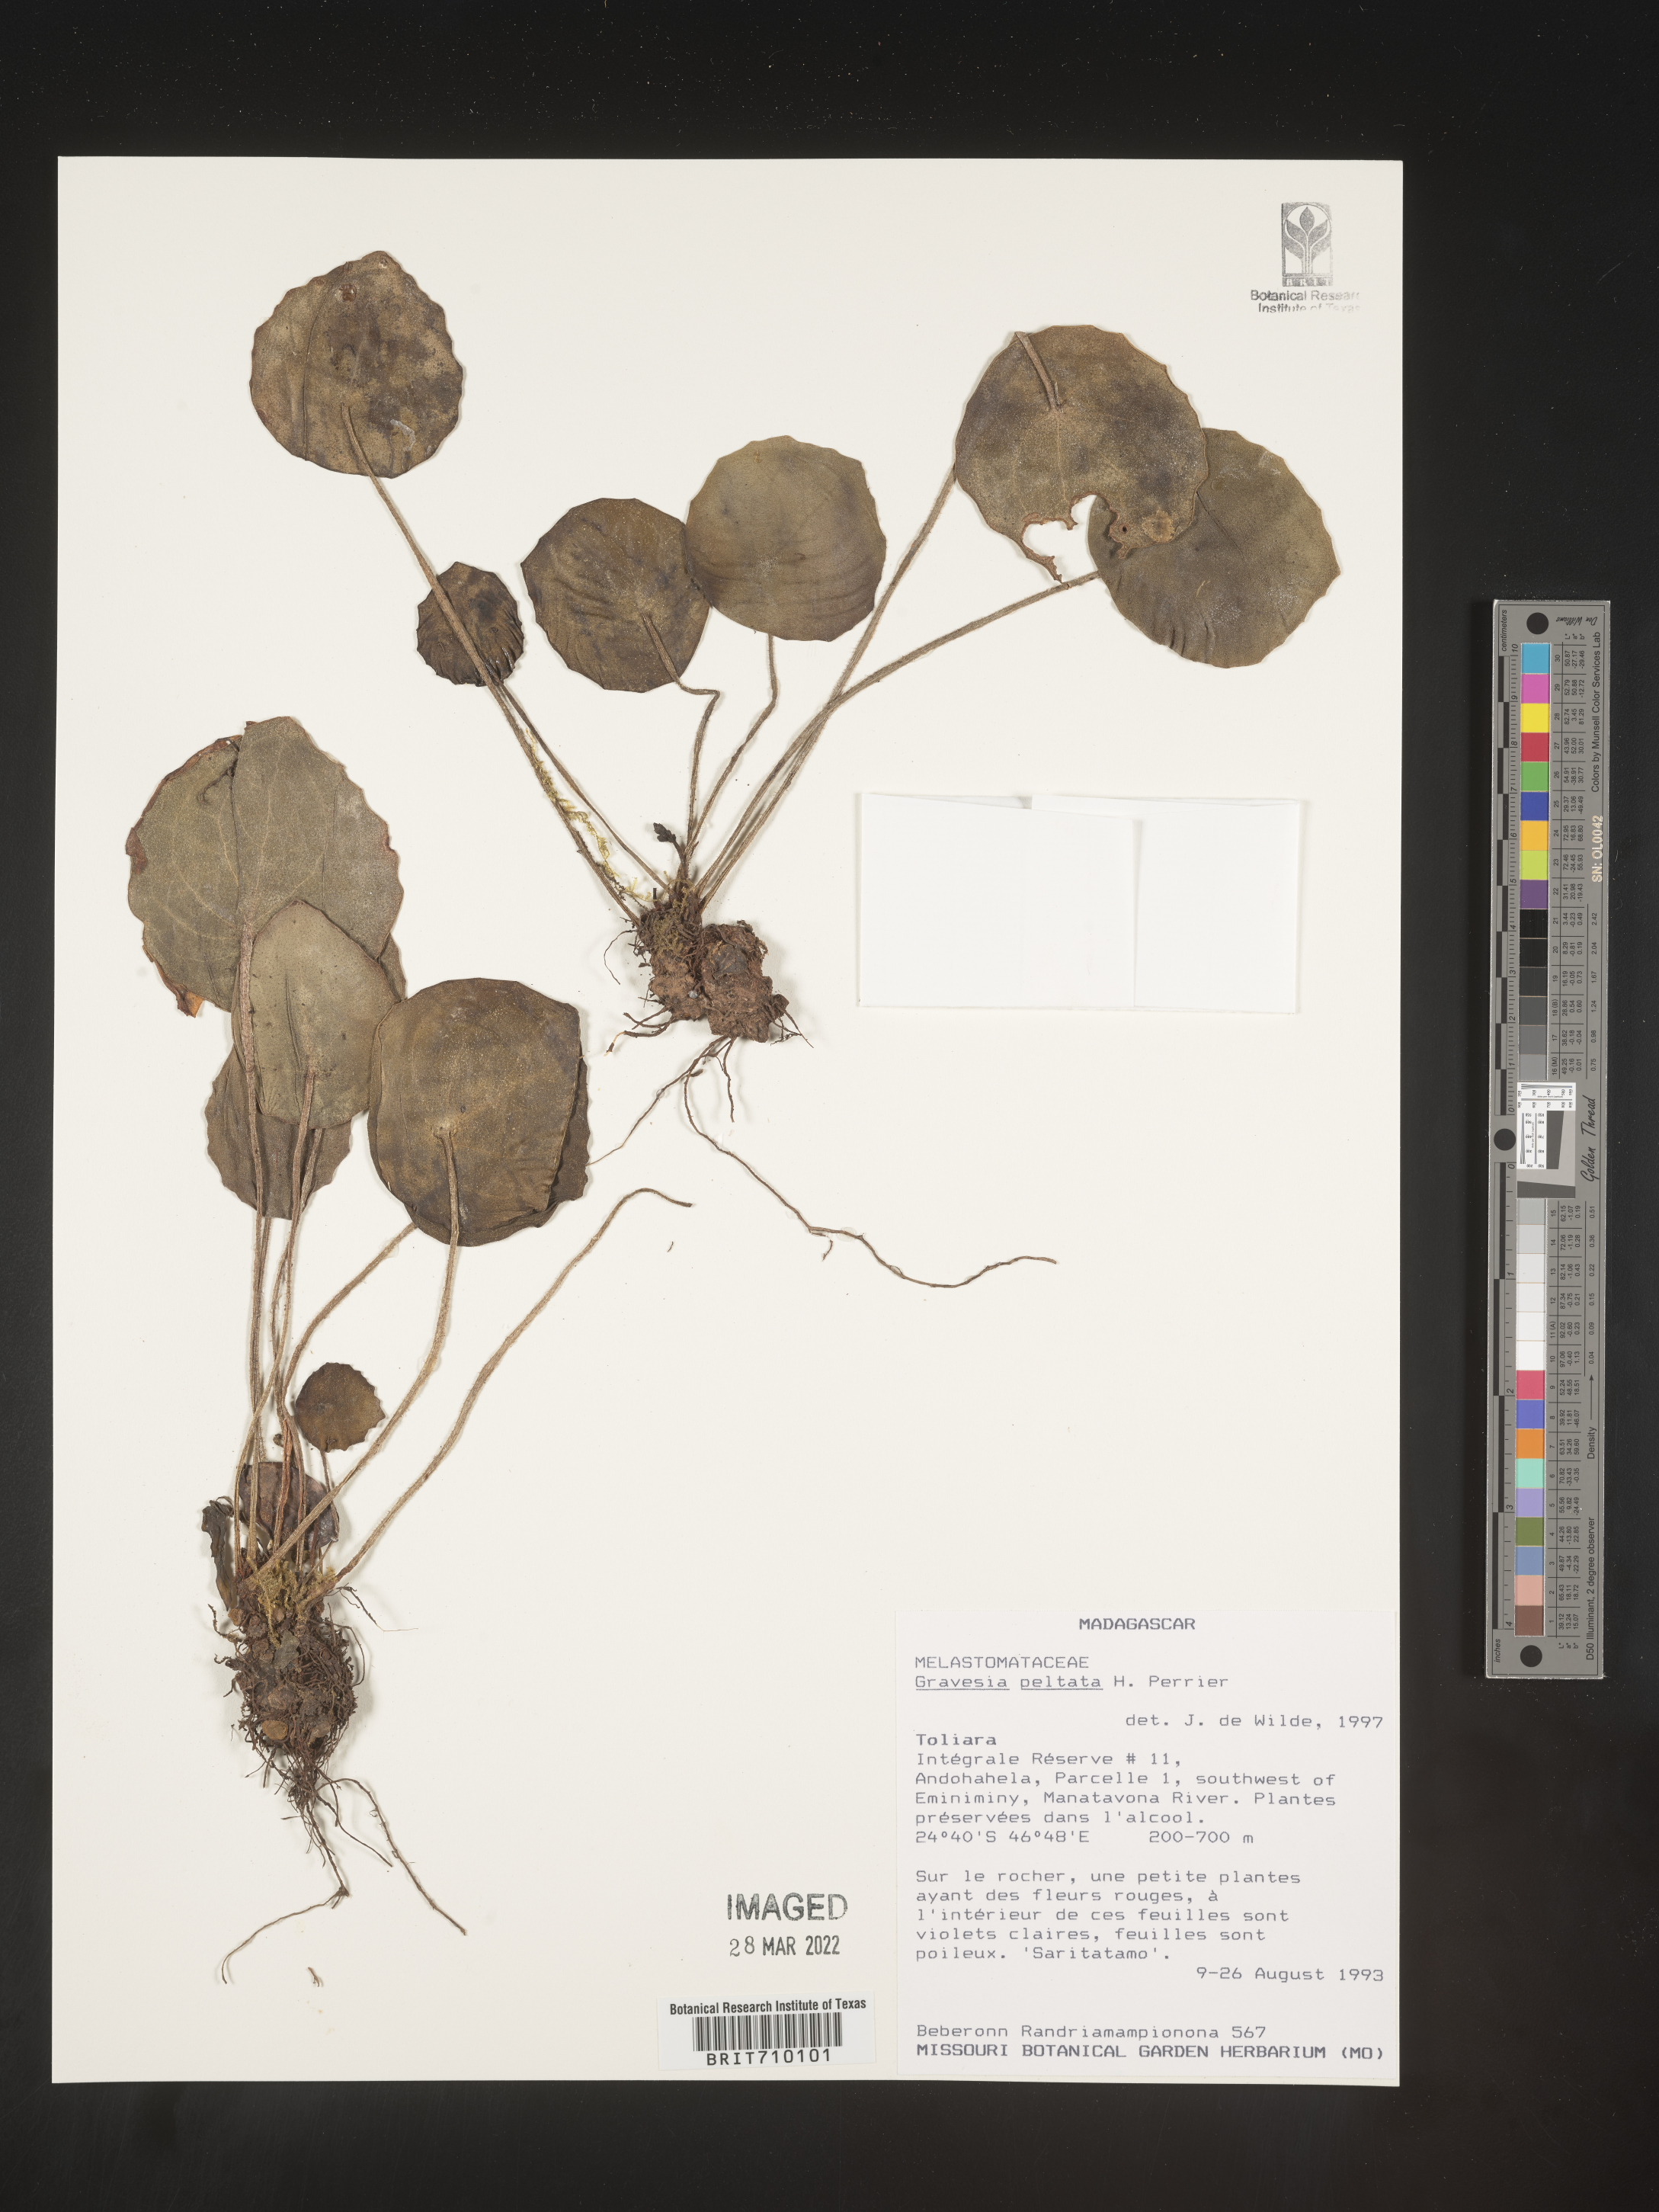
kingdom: Plantae
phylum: Tracheophyta
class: Magnoliopsida
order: Myrtales
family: Melastomataceae
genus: Gravesia
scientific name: Gravesia
